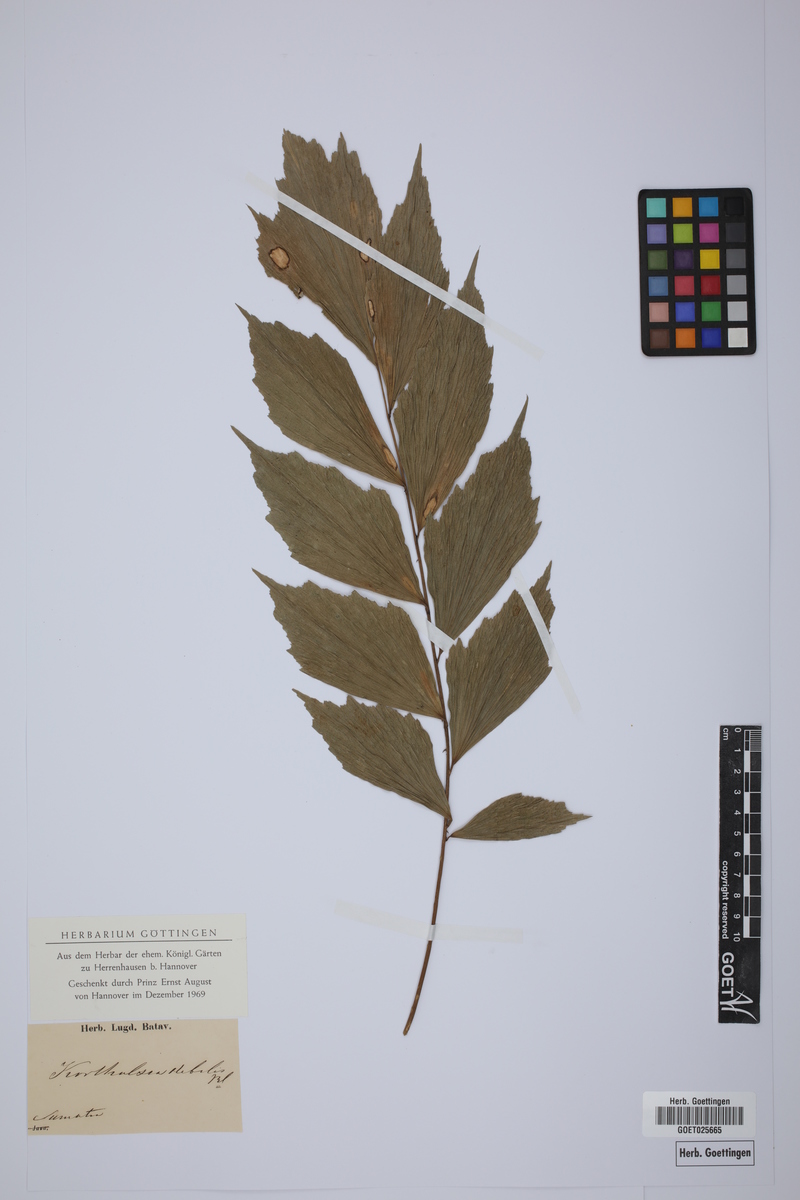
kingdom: Plantae
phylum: Tracheophyta
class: Liliopsida
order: Arecales
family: Arecaceae
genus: Korthalsia
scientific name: Korthalsia debilis
